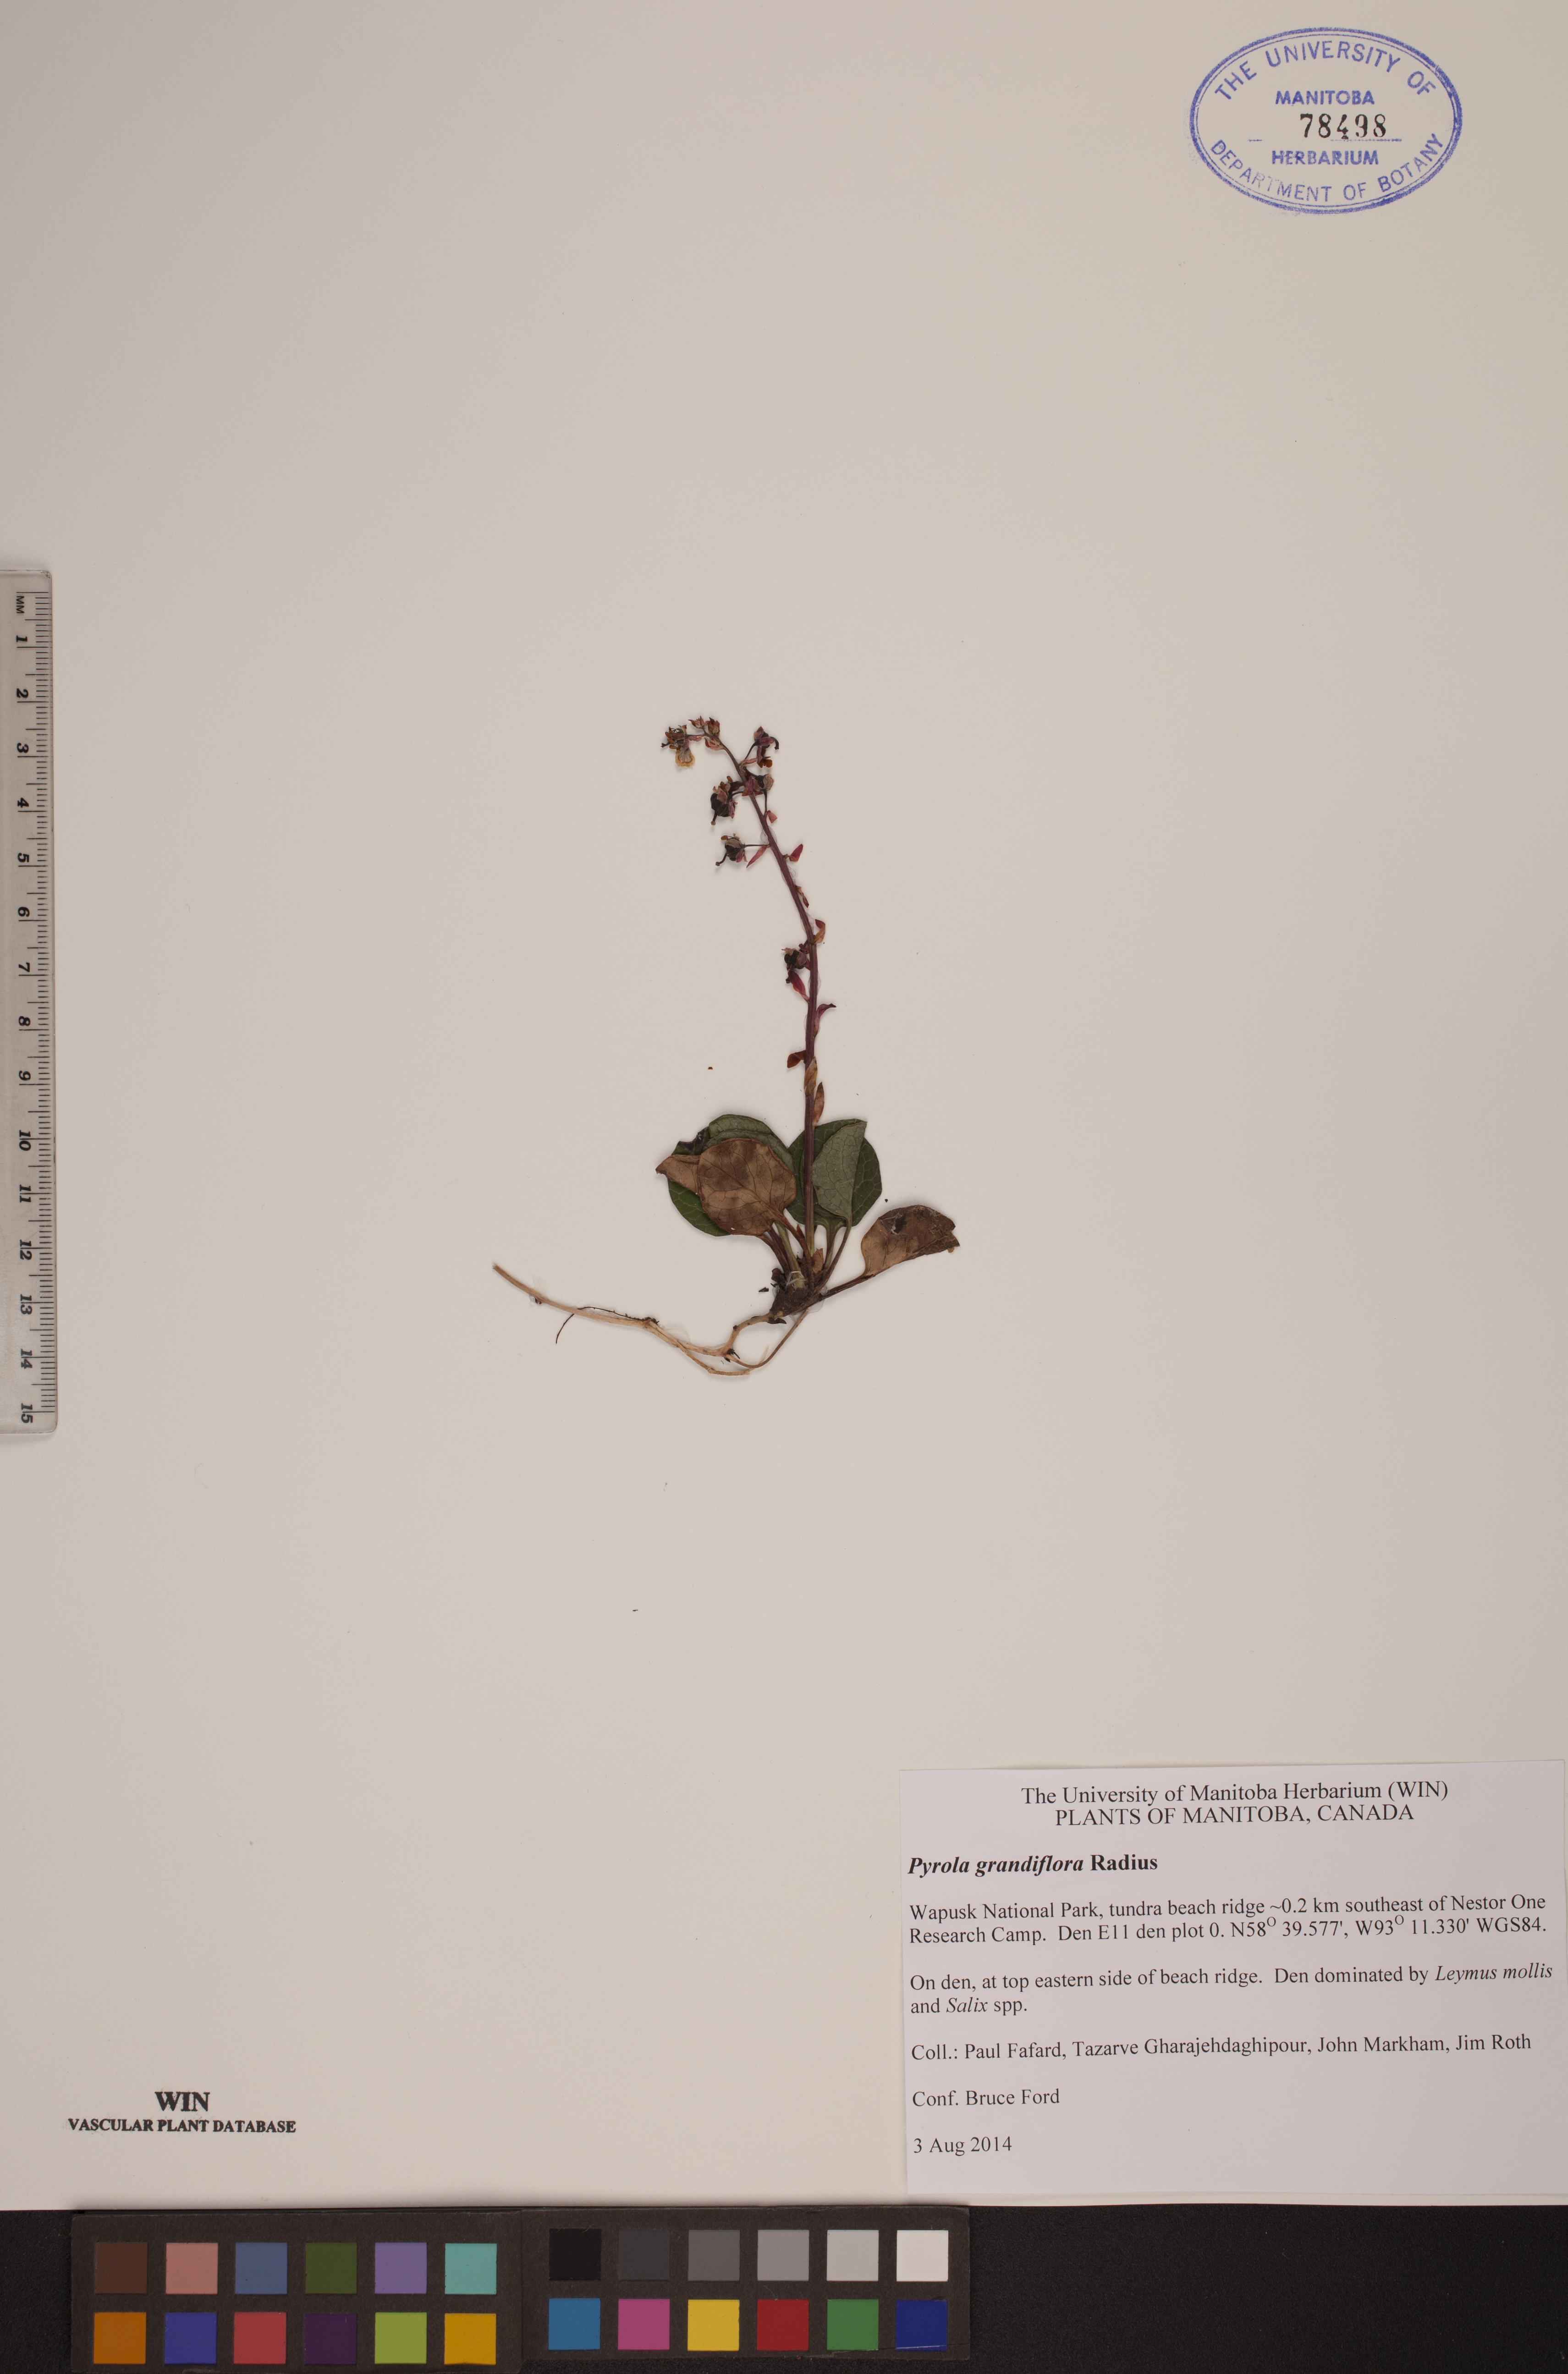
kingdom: Plantae
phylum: Tracheophyta
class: Magnoliopsida
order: Ericales
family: Ericaceae
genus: Pyrola
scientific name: Pyrola grandiflora
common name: Arctic pyrola
